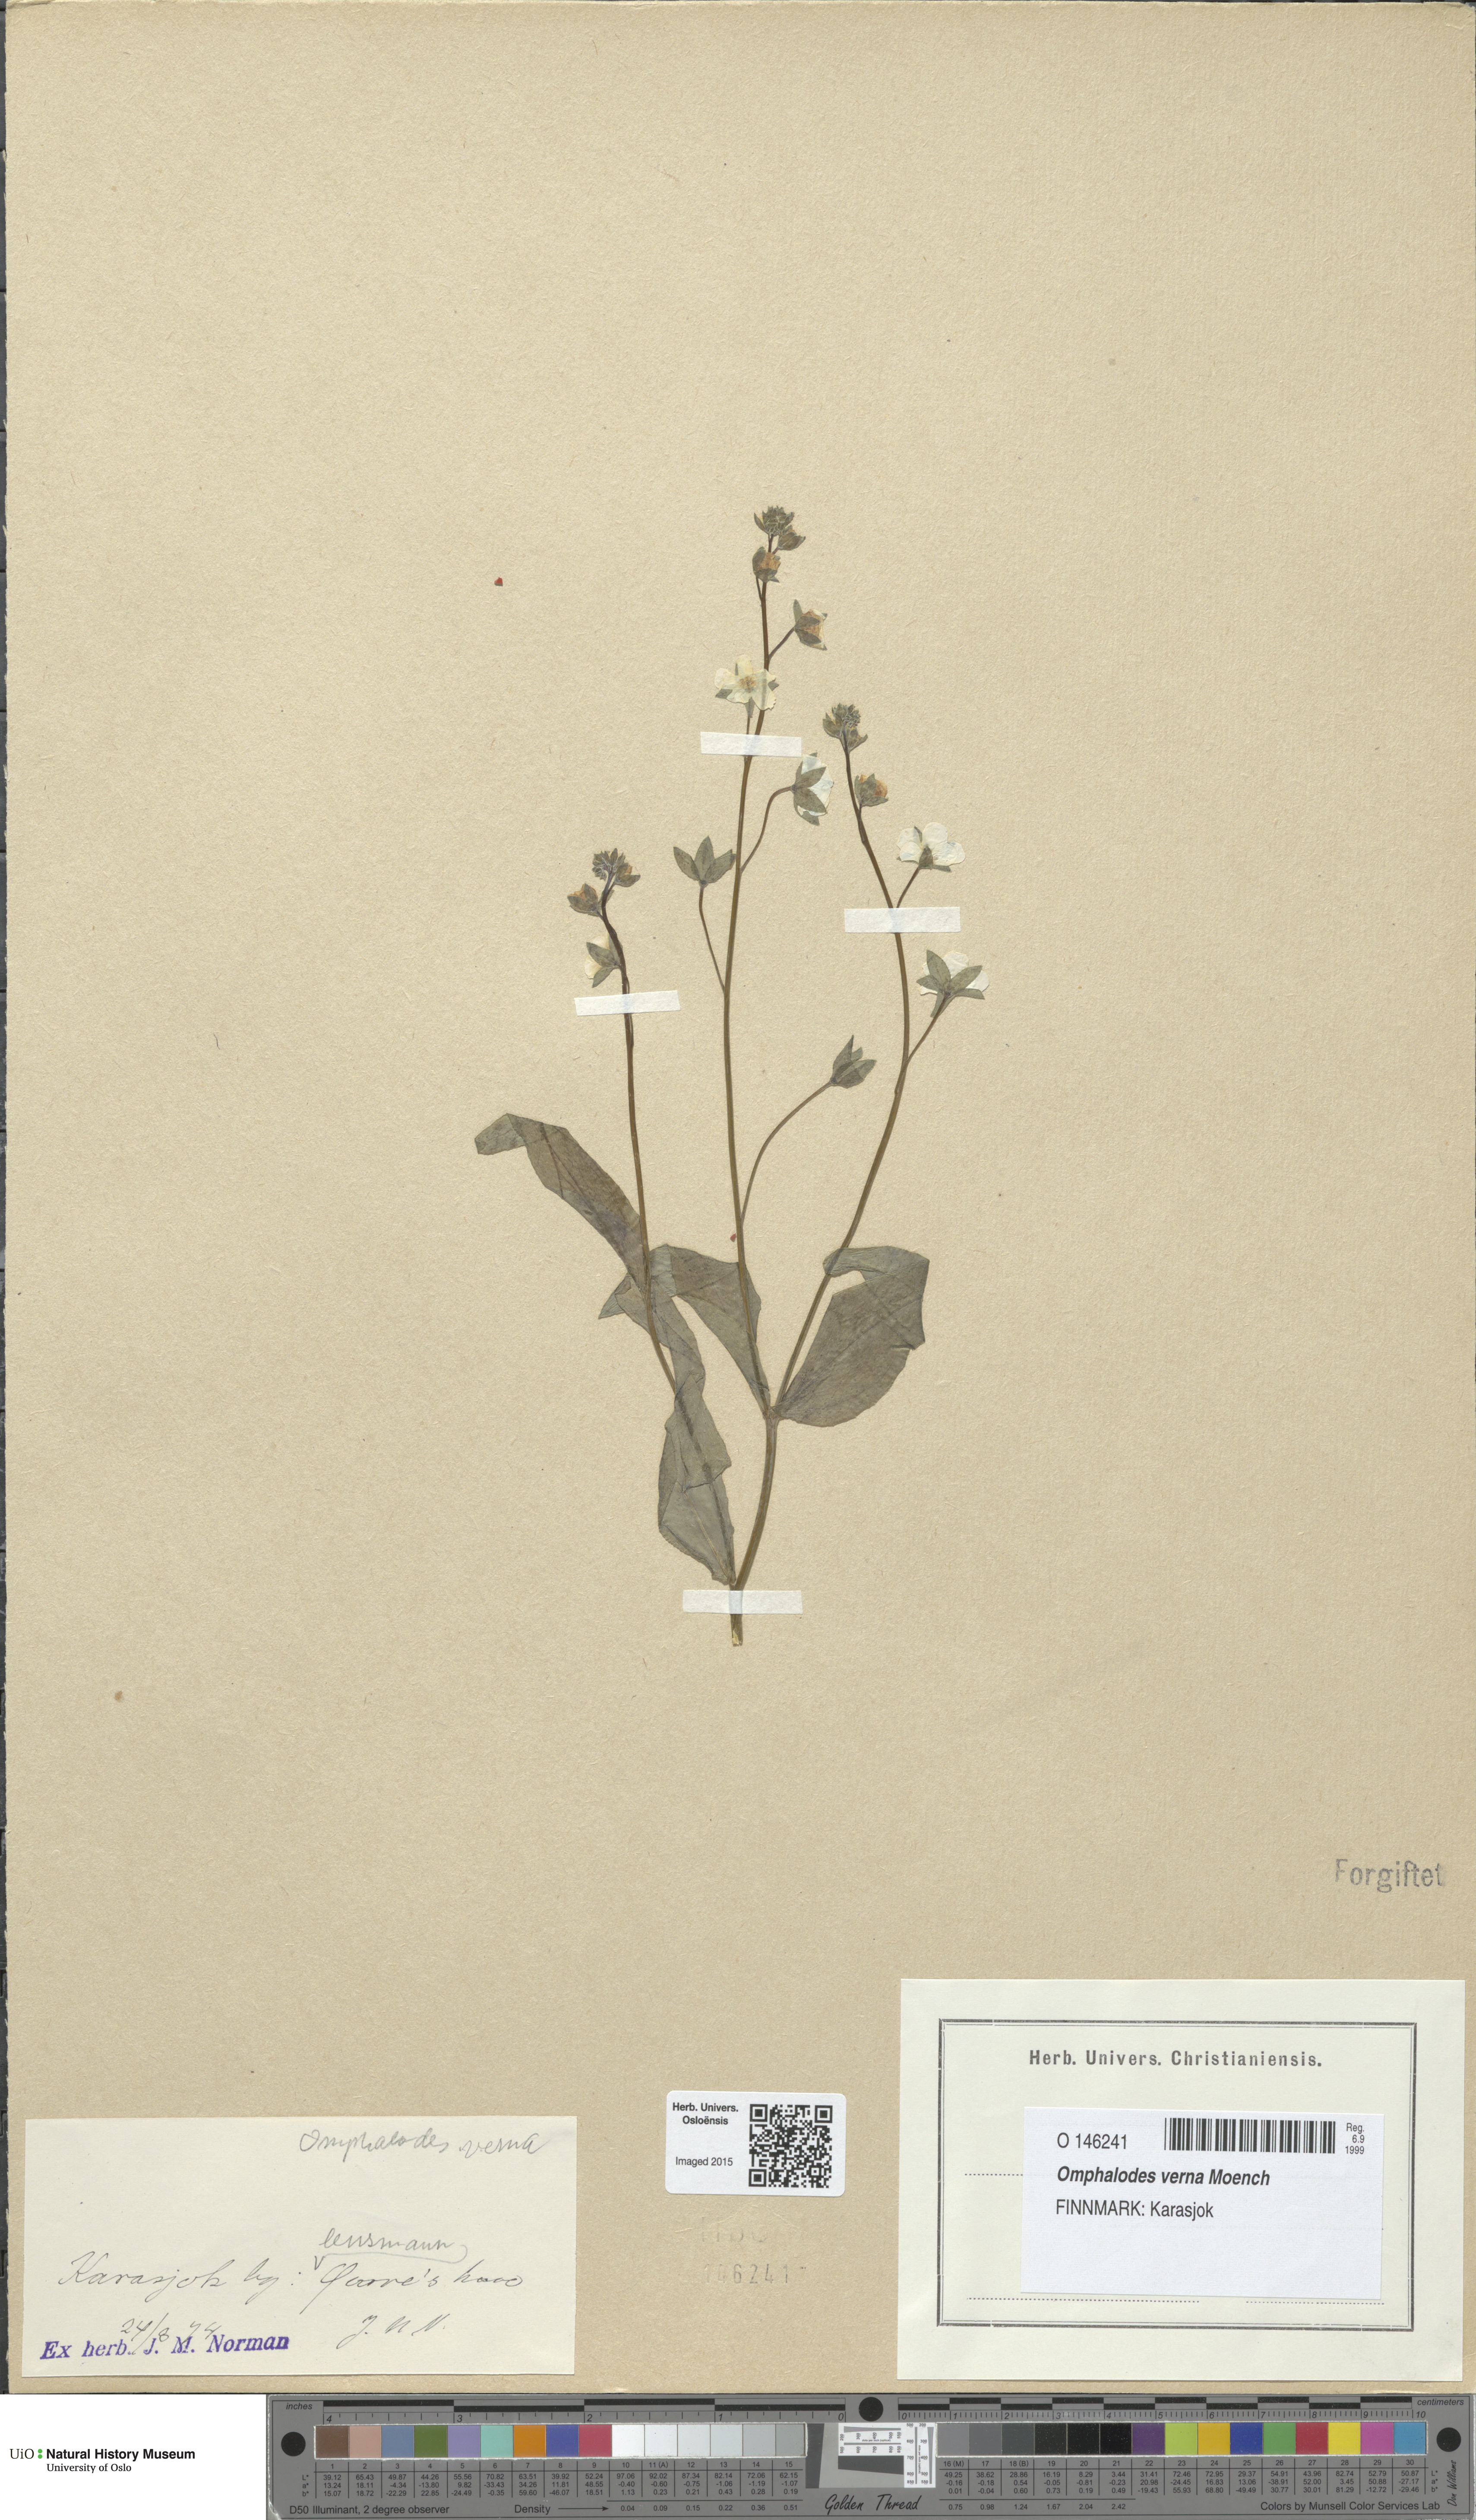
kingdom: Plantae
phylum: Tracheophyta
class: Magnoliopsida
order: Boraginales
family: Boraginaceae
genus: Omphalodes
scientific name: Omphalodes verna
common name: Blue-eyed-mary
